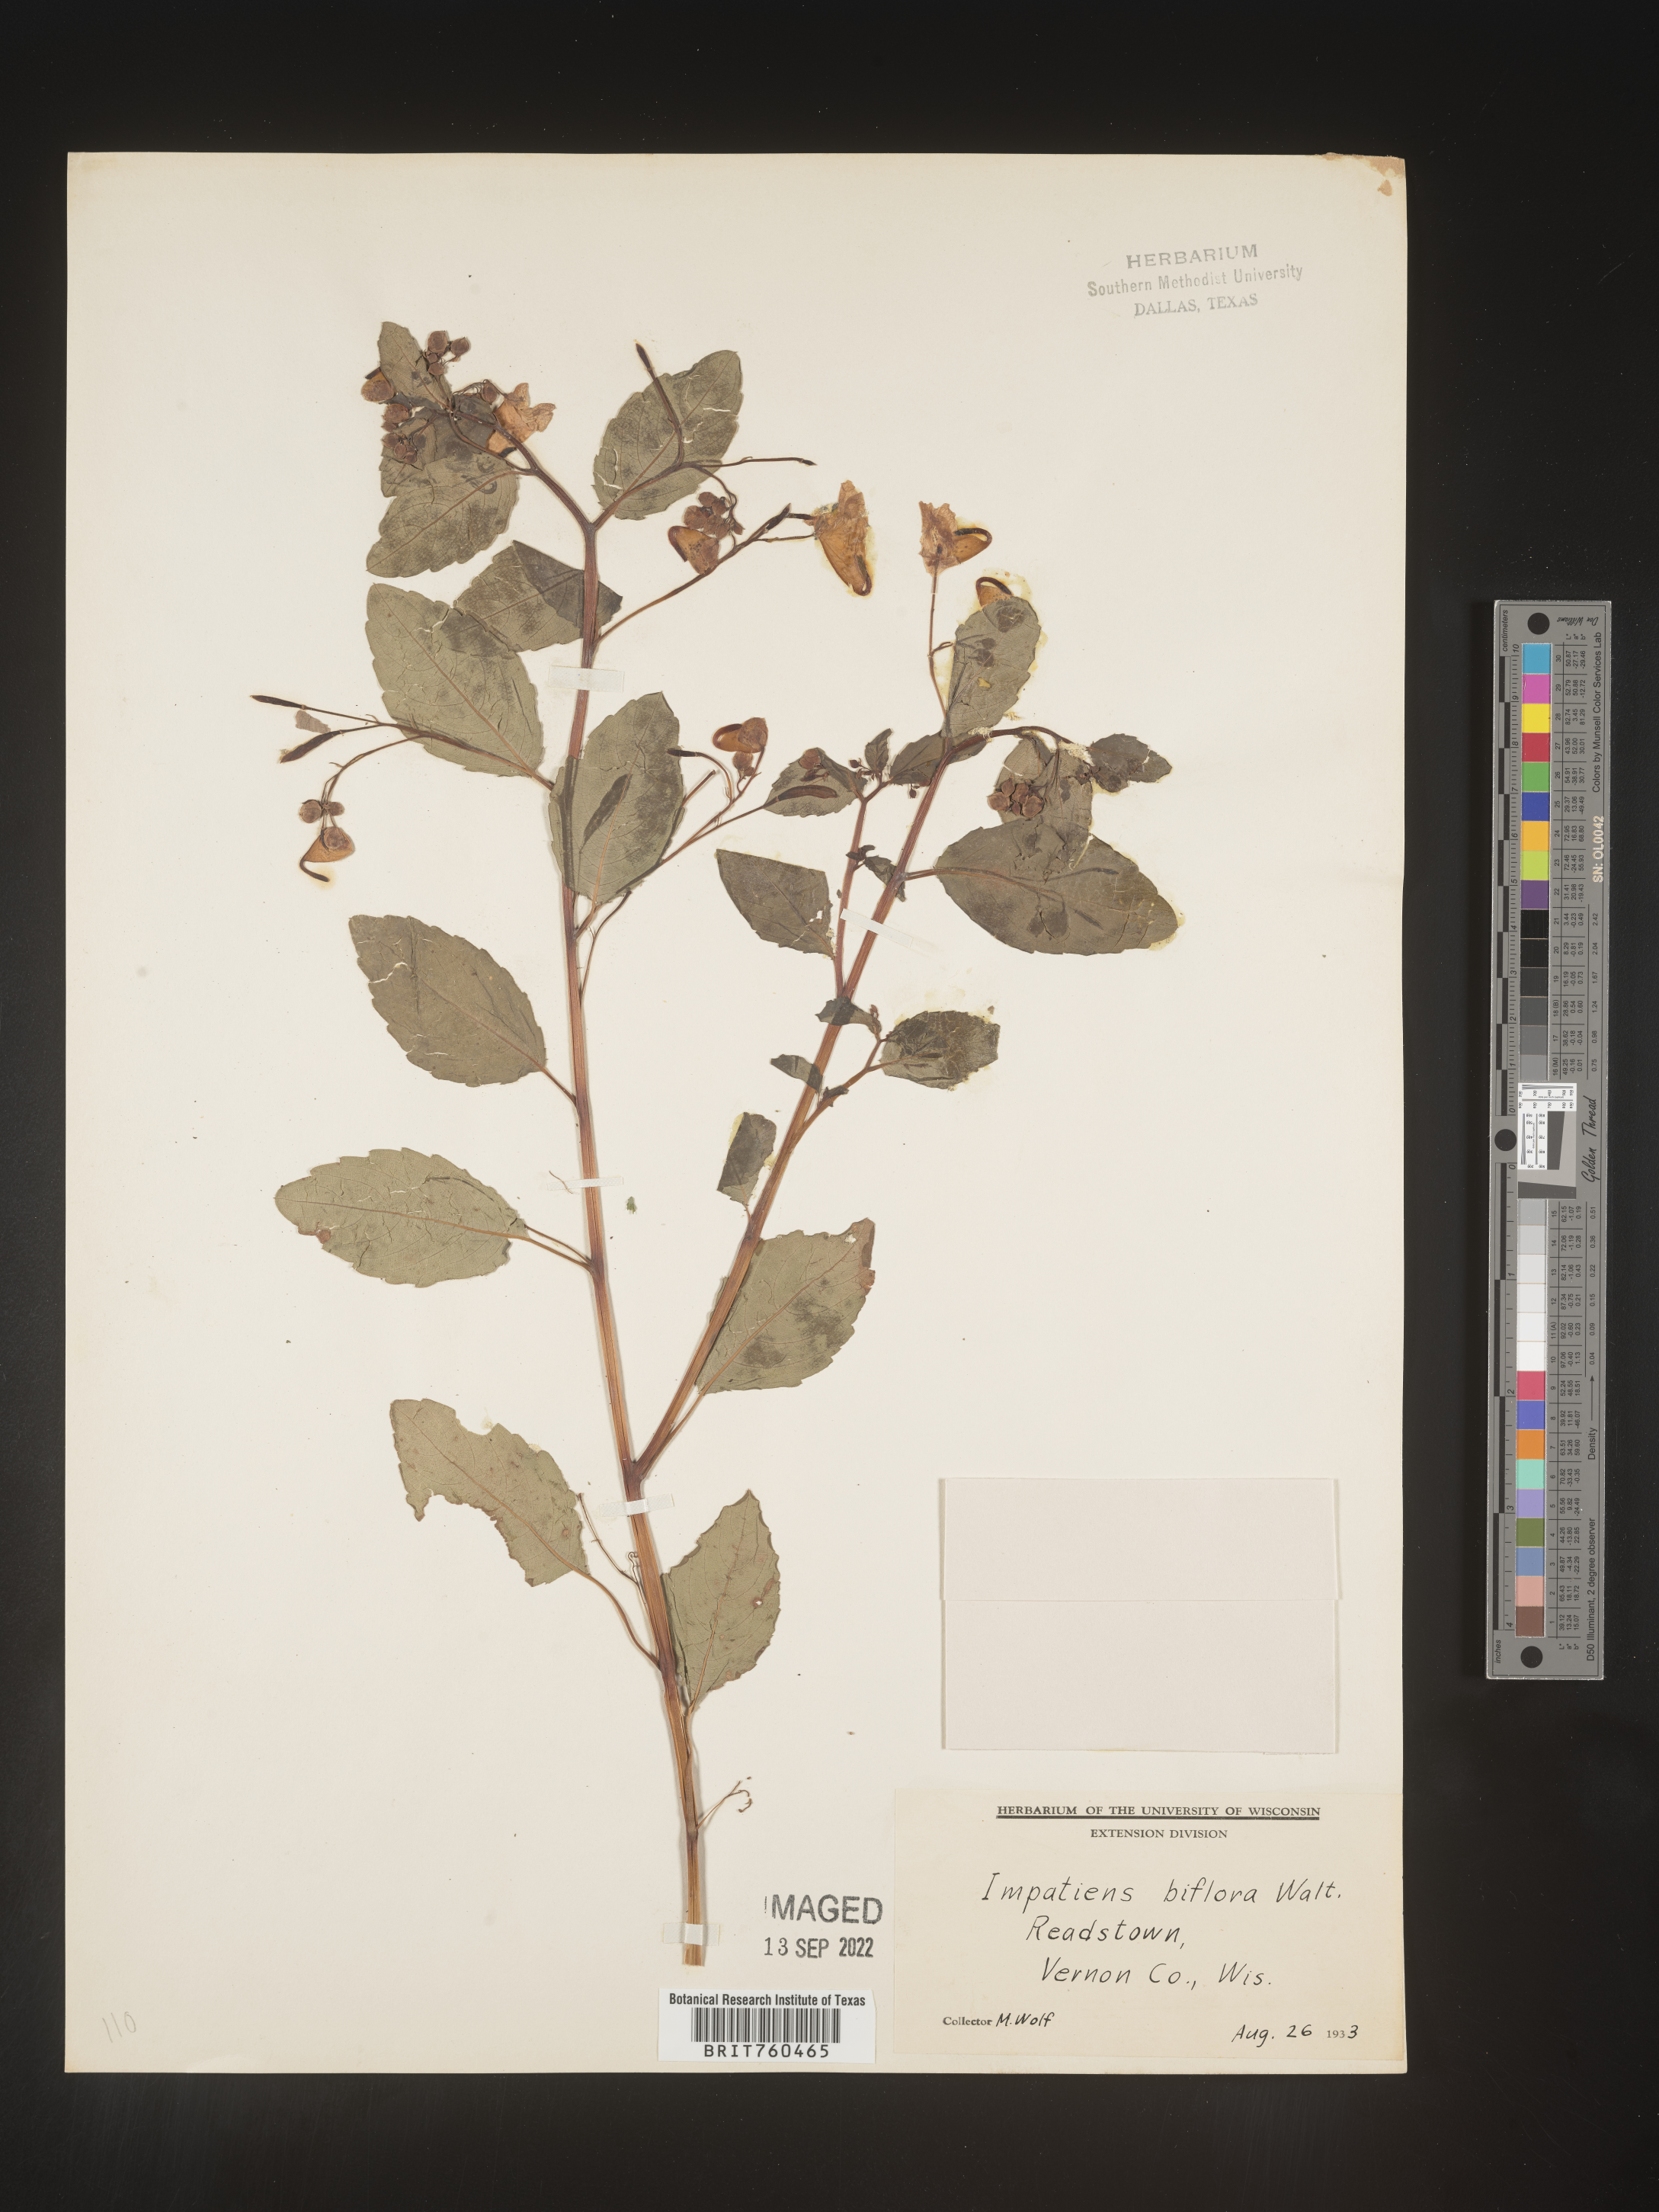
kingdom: Plantae
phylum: Tracheophyta
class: Magnoliopsida
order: Ericales
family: Balsaminaceae
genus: Impatiens
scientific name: Impatiens capensis
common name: Orange balsam
